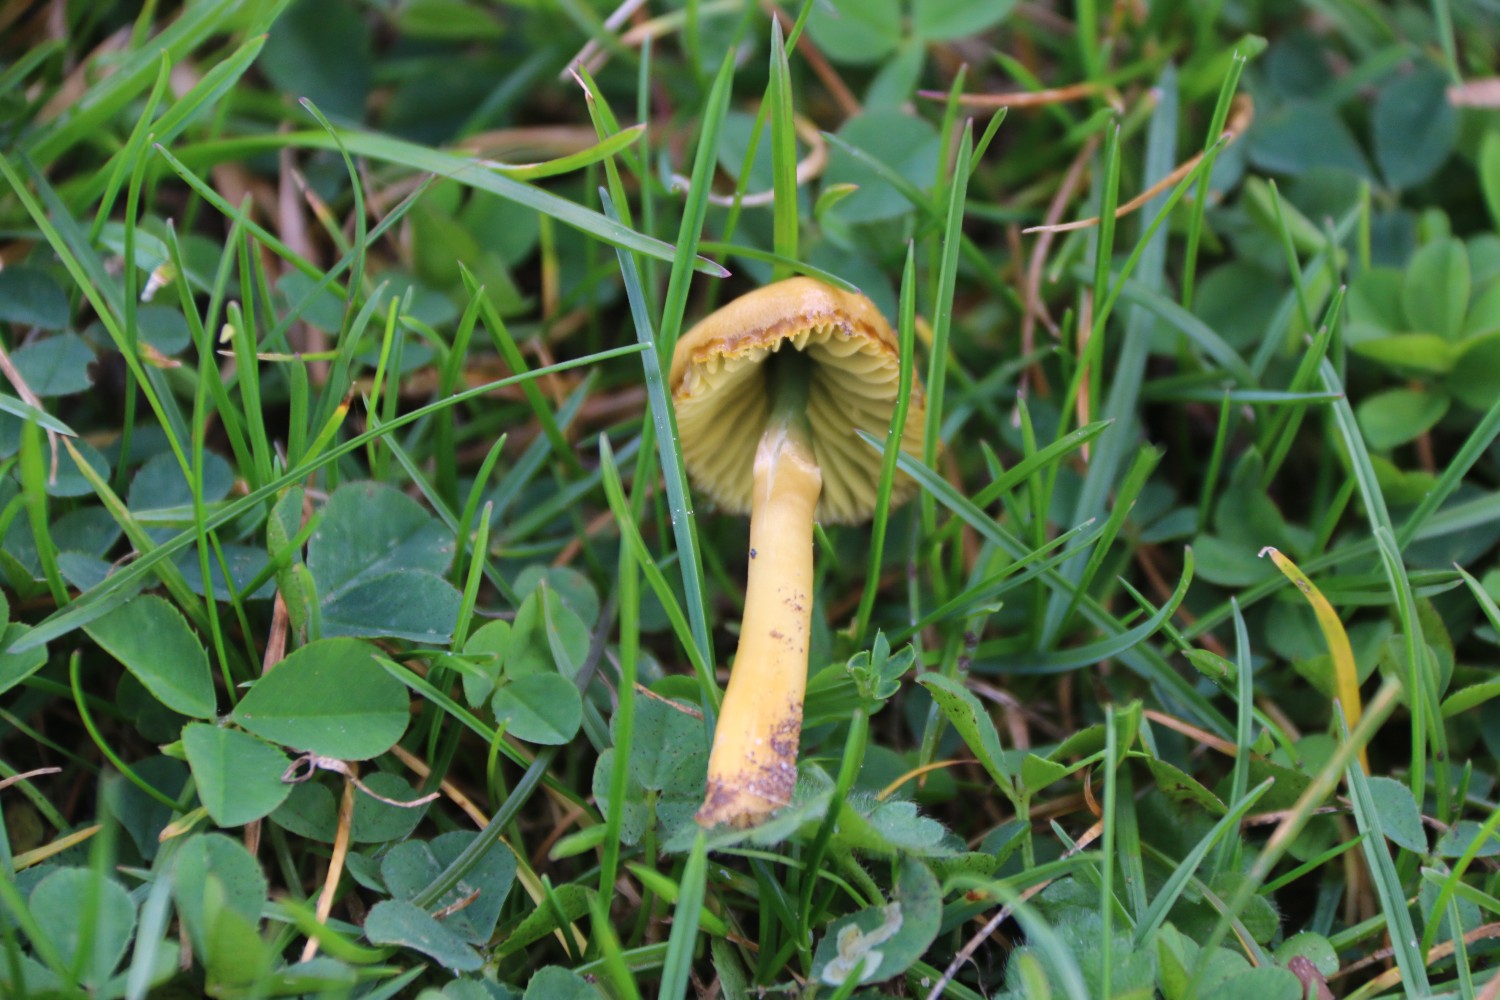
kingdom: Fungi
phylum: Basidiomycota
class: Agaricomycetes
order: Agaricales
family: Hygrophoraceae
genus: Gliophorus
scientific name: Gliophorus psittacinus
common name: papegøje-vokshat
